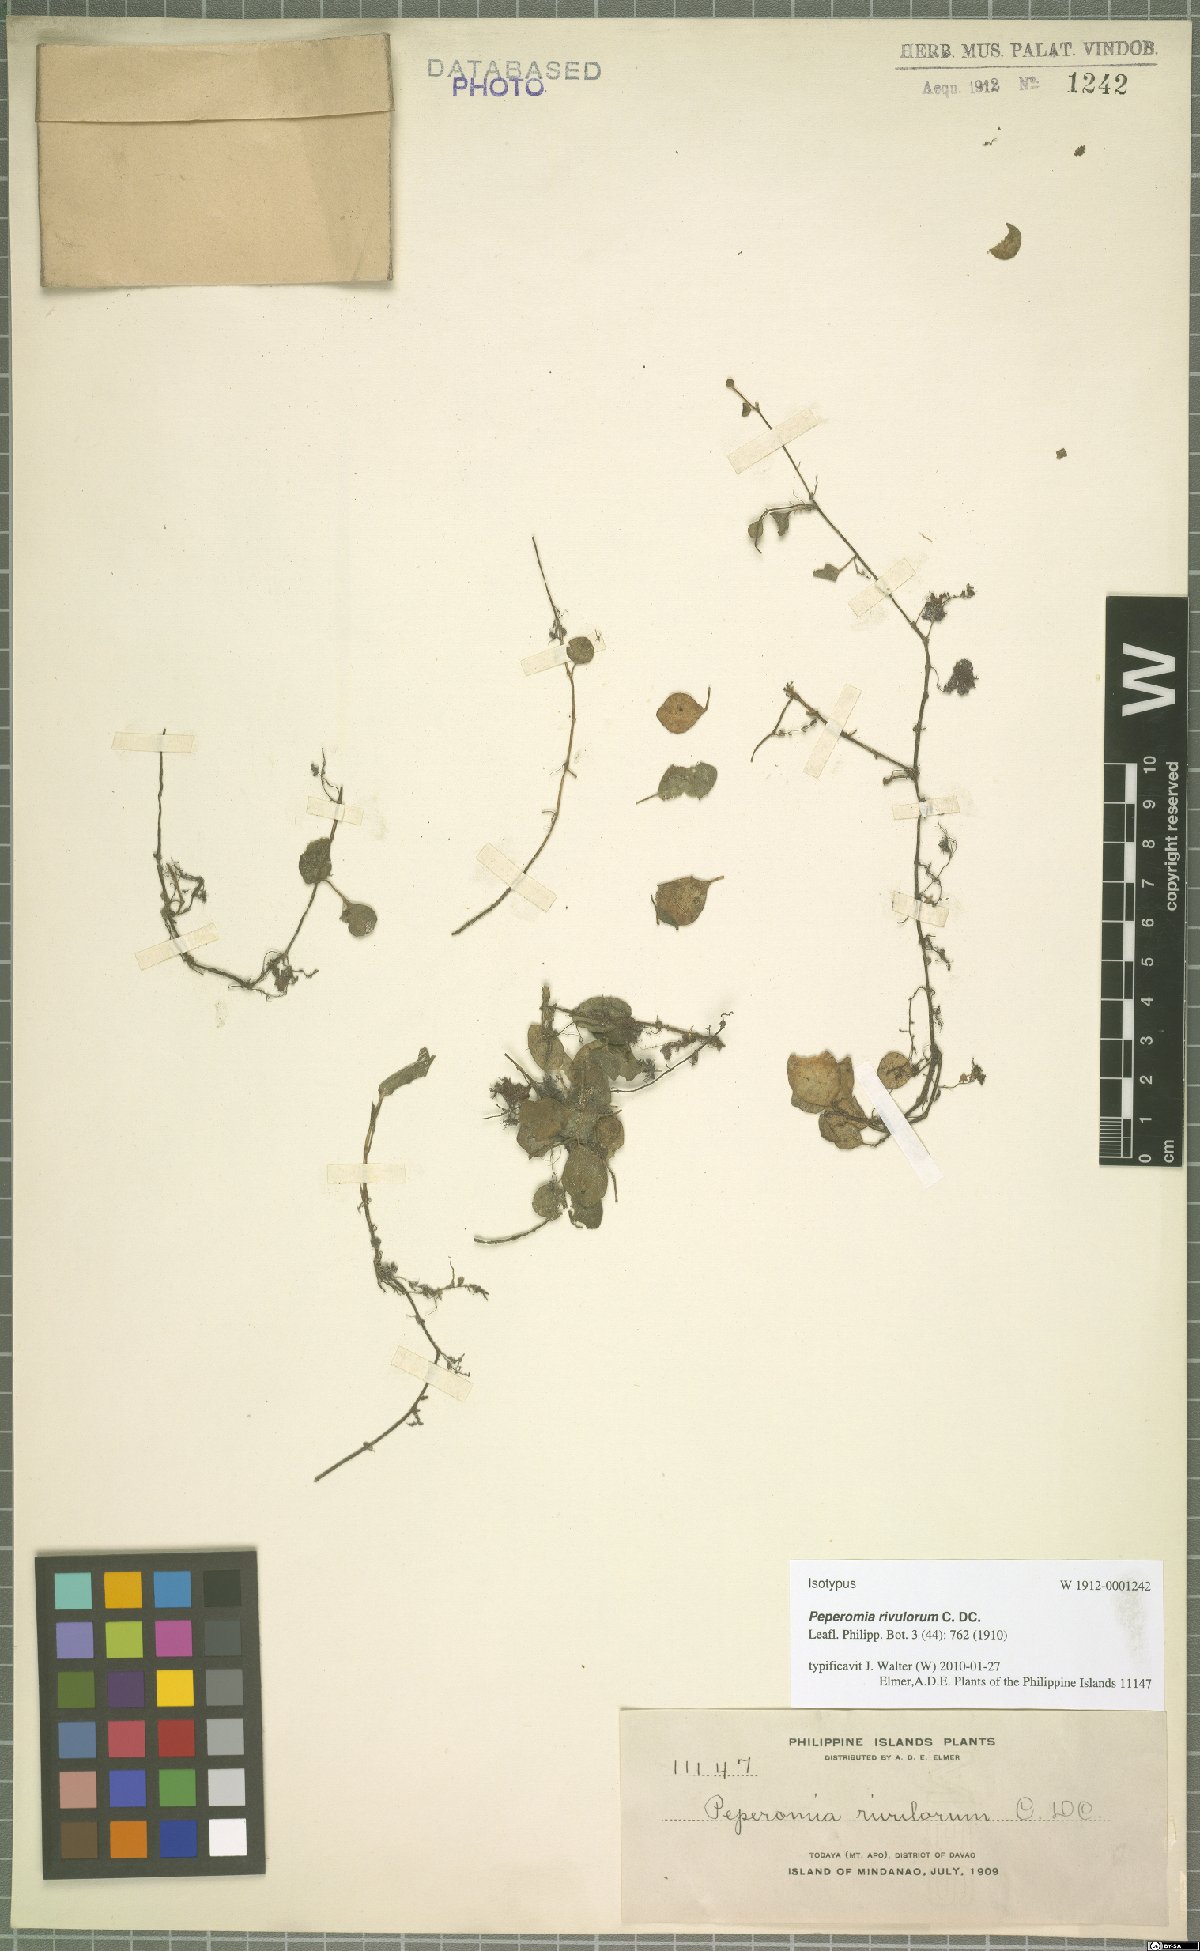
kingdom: Plantae
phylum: Tracheophyta
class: Magnoliopsida
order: Piperales
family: Piperaceae
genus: Peperomia
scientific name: Peperomia rivulorum
